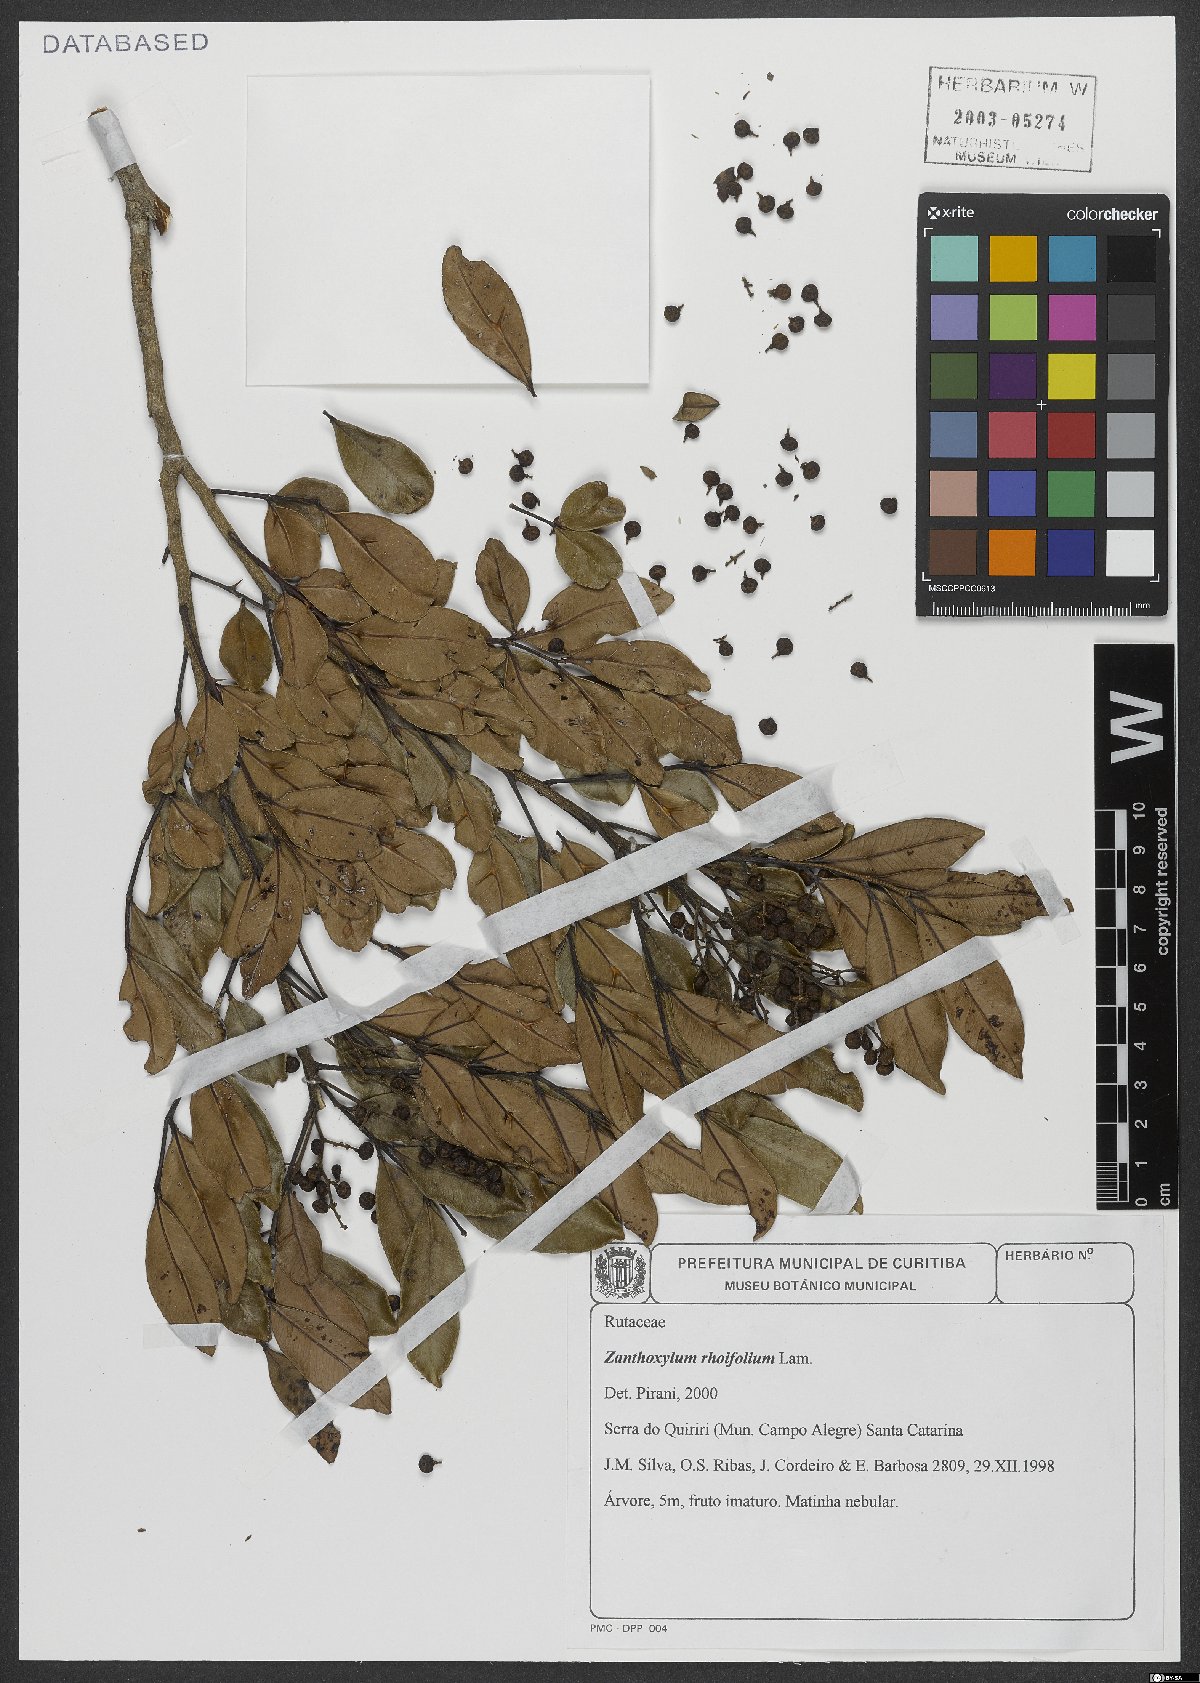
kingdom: Plantae
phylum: Tracheophyta
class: Magnoliopsida
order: Sapindales
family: Rutaceae
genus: Zanthoxylum
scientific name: Zanthoxylum rhoifolium
